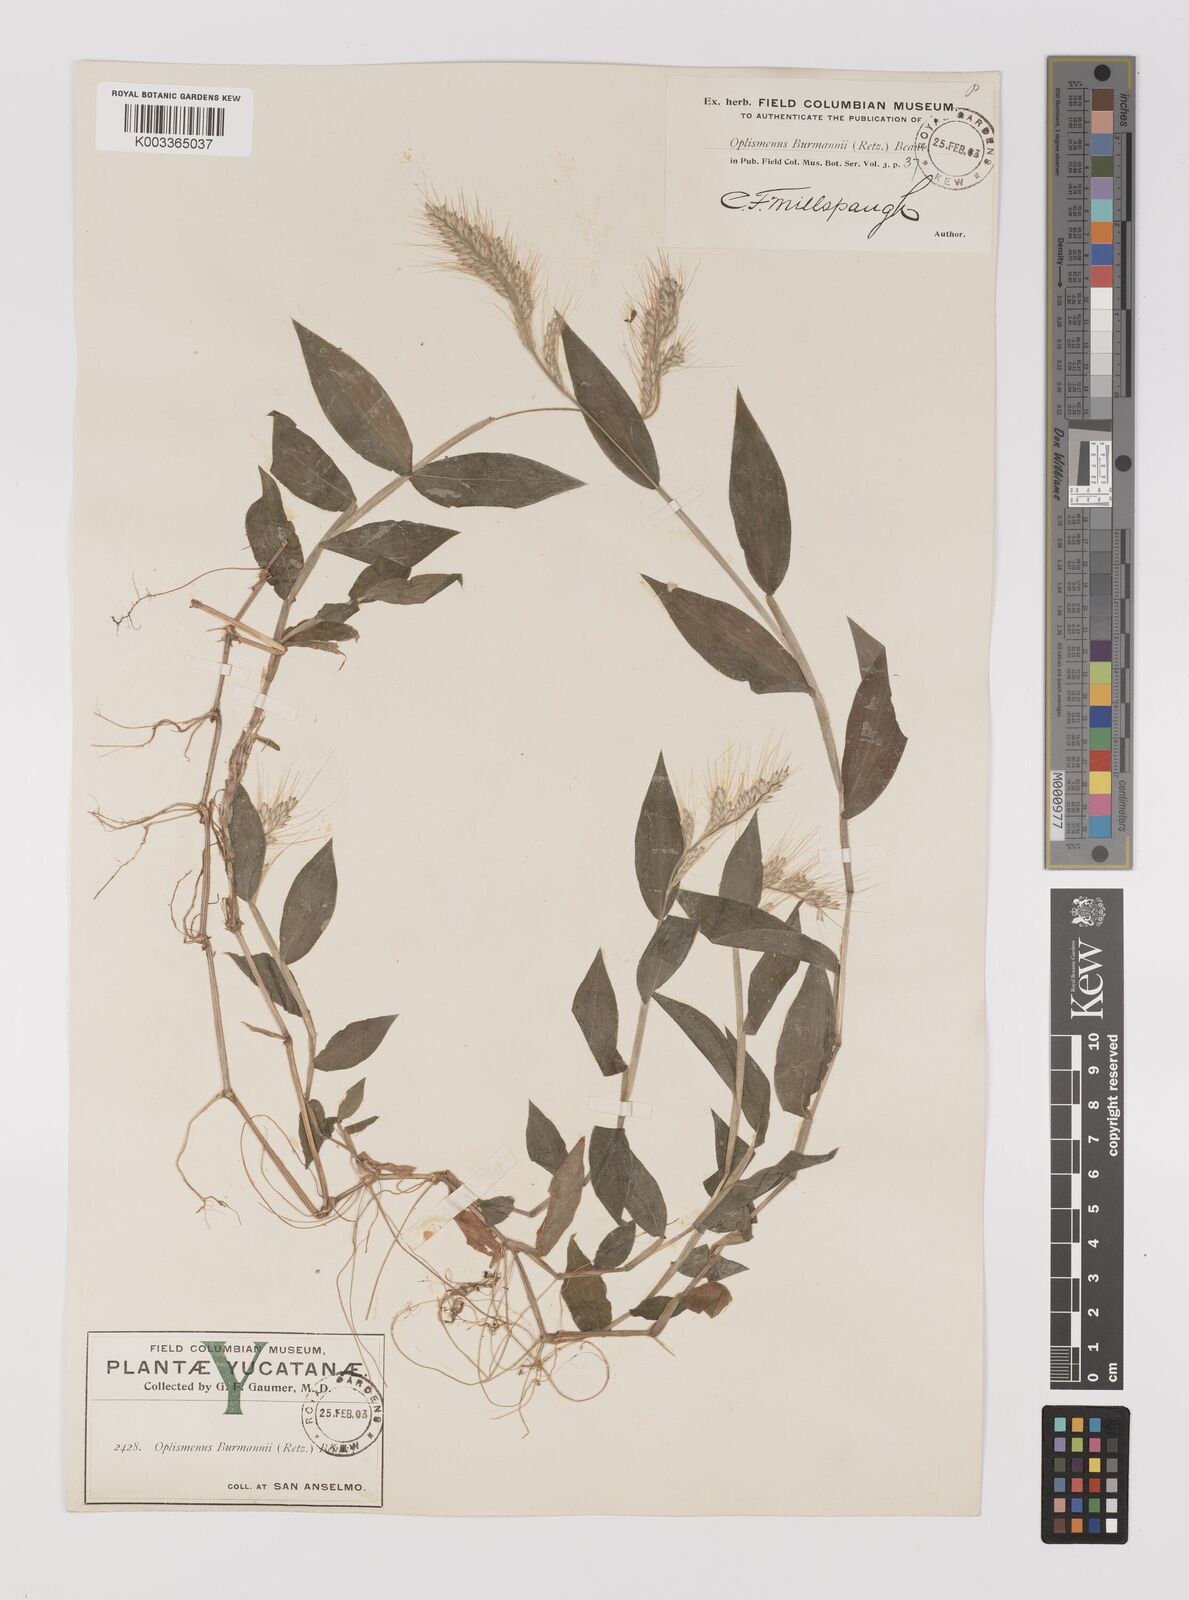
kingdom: Plantae
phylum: Tracheophyta
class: Liliopsida
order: Poales
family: Poaceae
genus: Oplismenus
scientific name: Oplismenus burmanni
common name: Burmann's basketgrass
